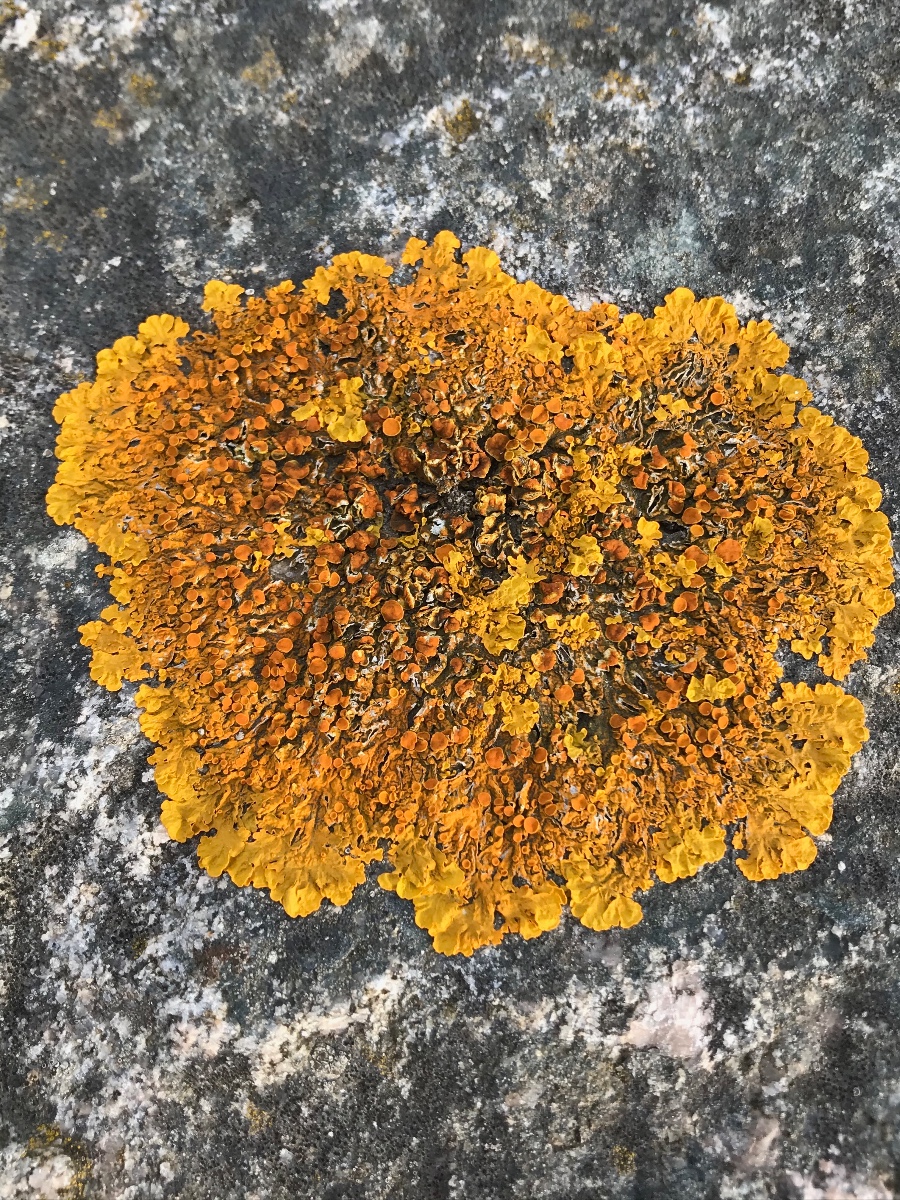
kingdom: Fungi
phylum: Ascomycota
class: Lecanoromycetes
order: Teloschistales
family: Teloschistaceae
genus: Xanthoria
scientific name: Xanthoria parietina
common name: almindelig væggelav
